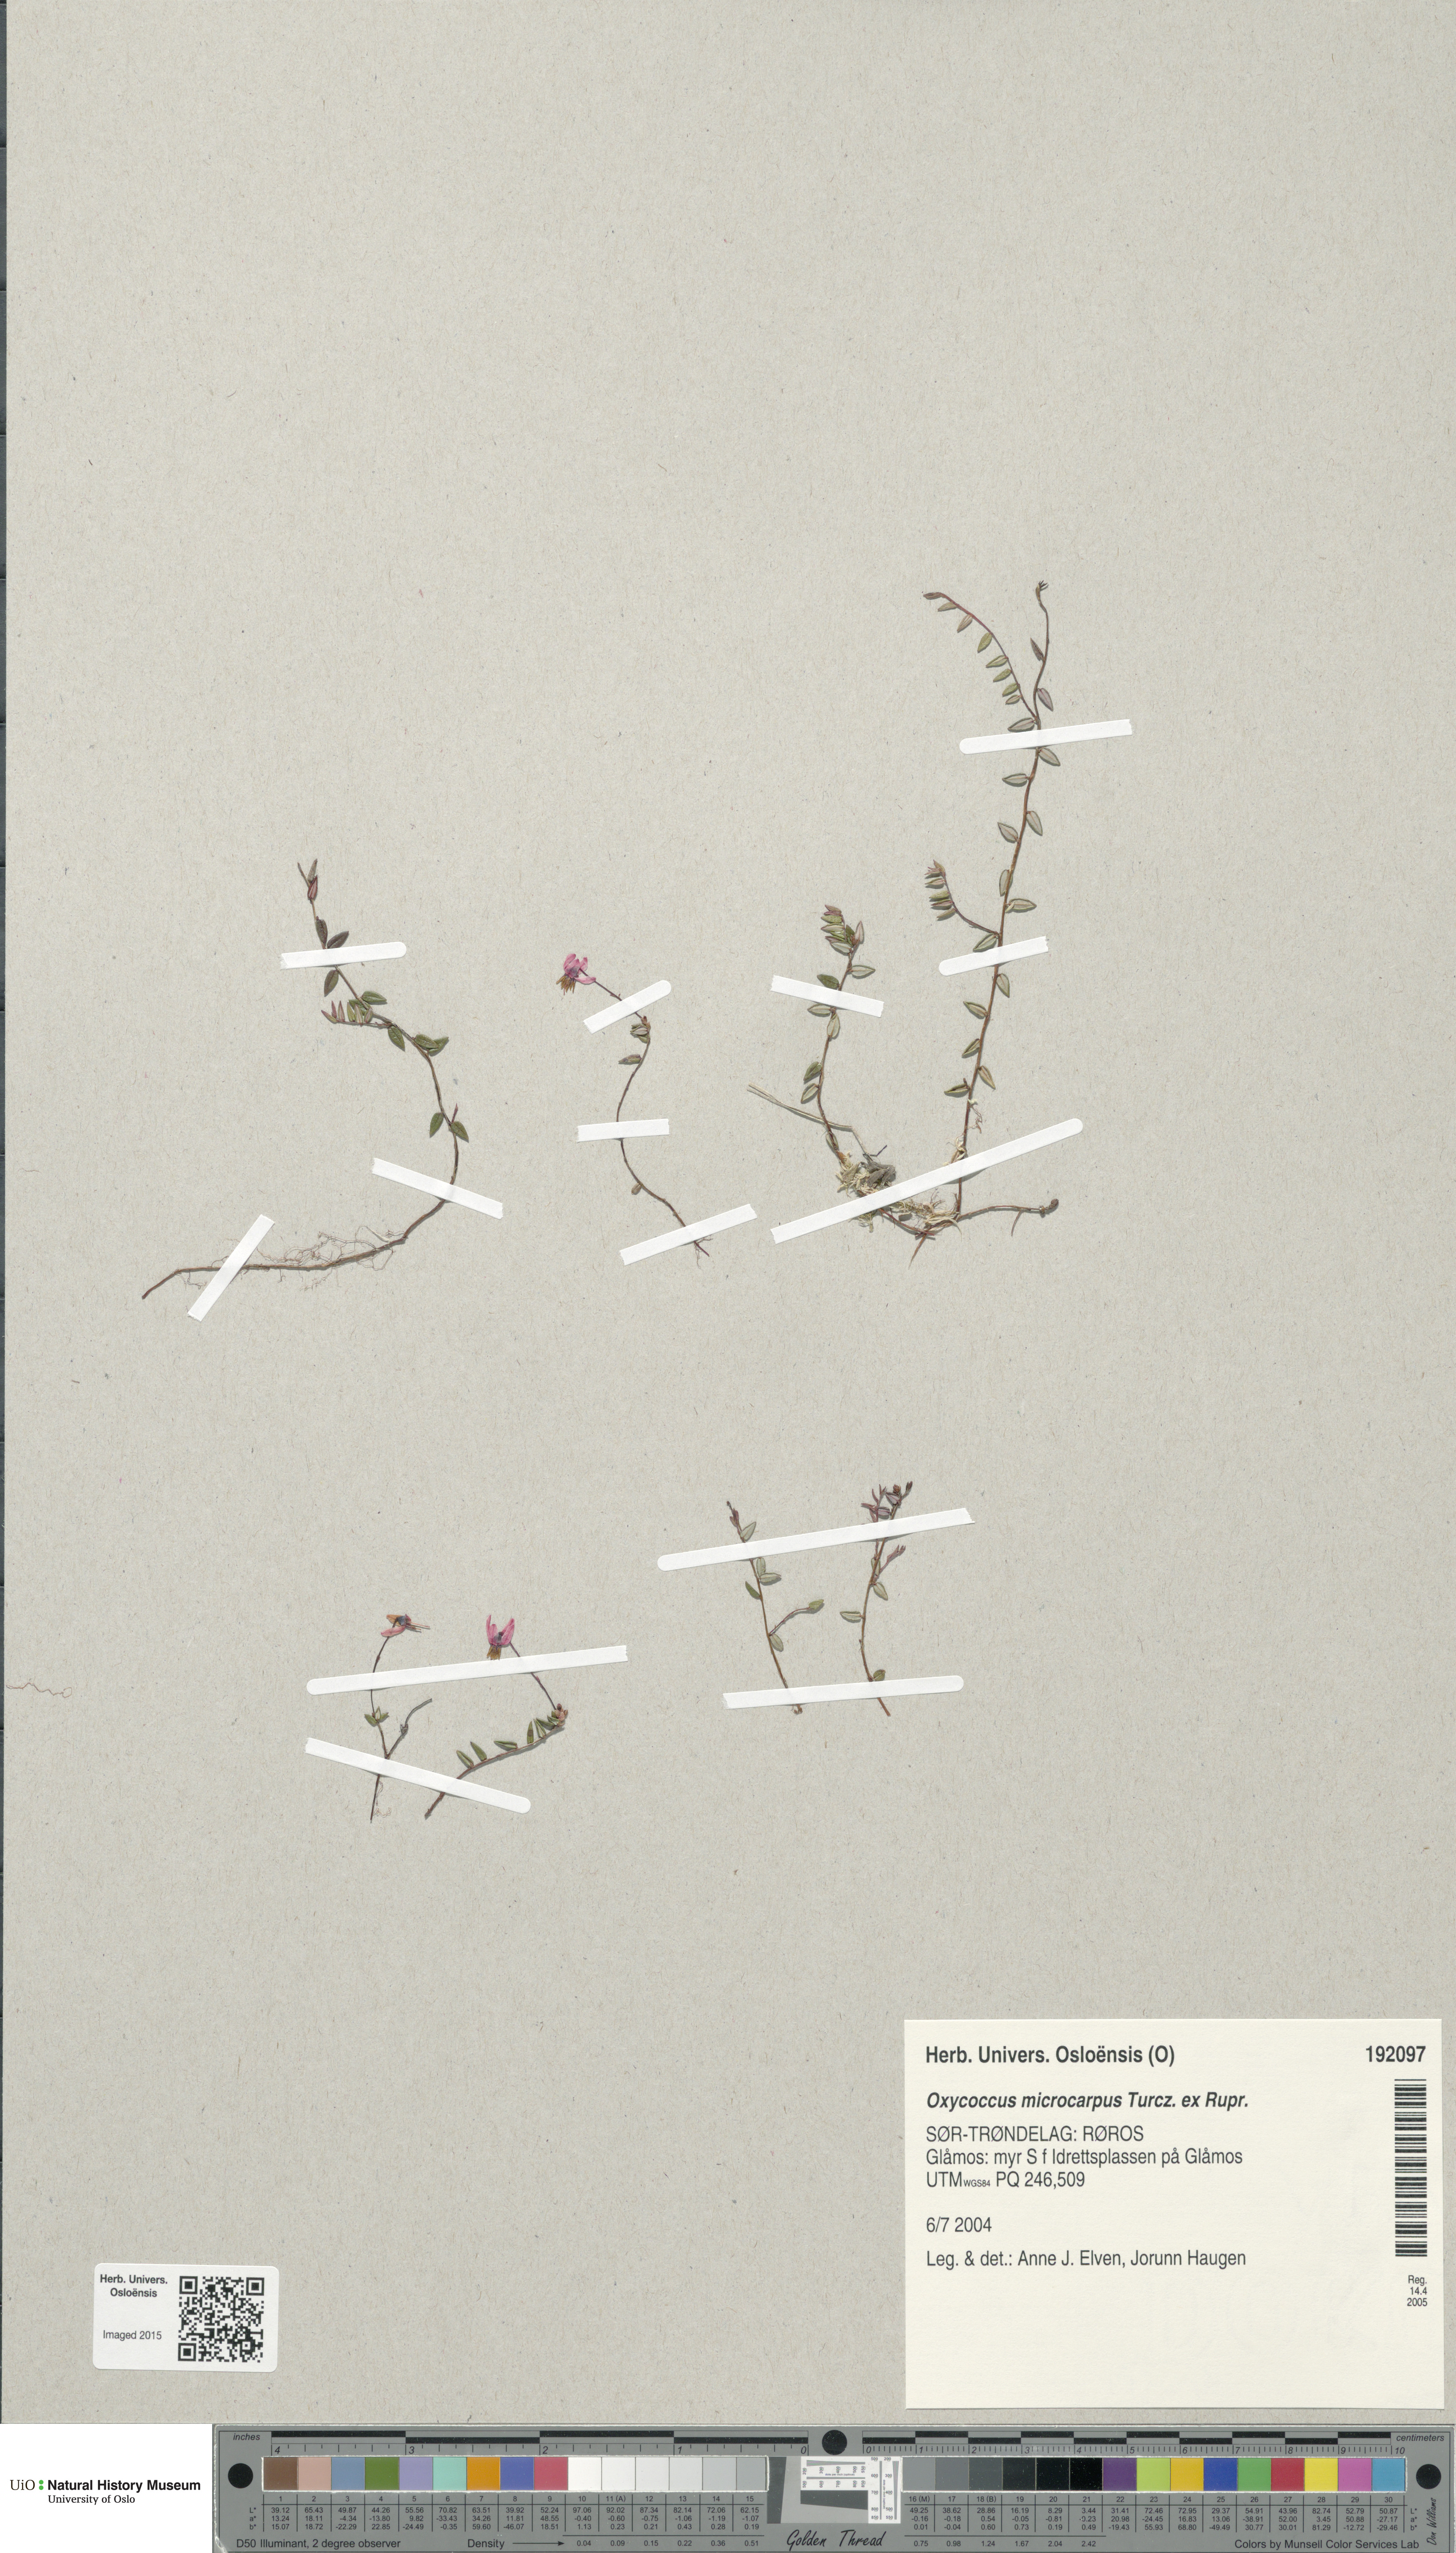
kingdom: Plantae
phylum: Tracheophyta
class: Magnoliopsida
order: Ericales
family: Ericaceae
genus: Vaccinium
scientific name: Vaccinium microcarpum
